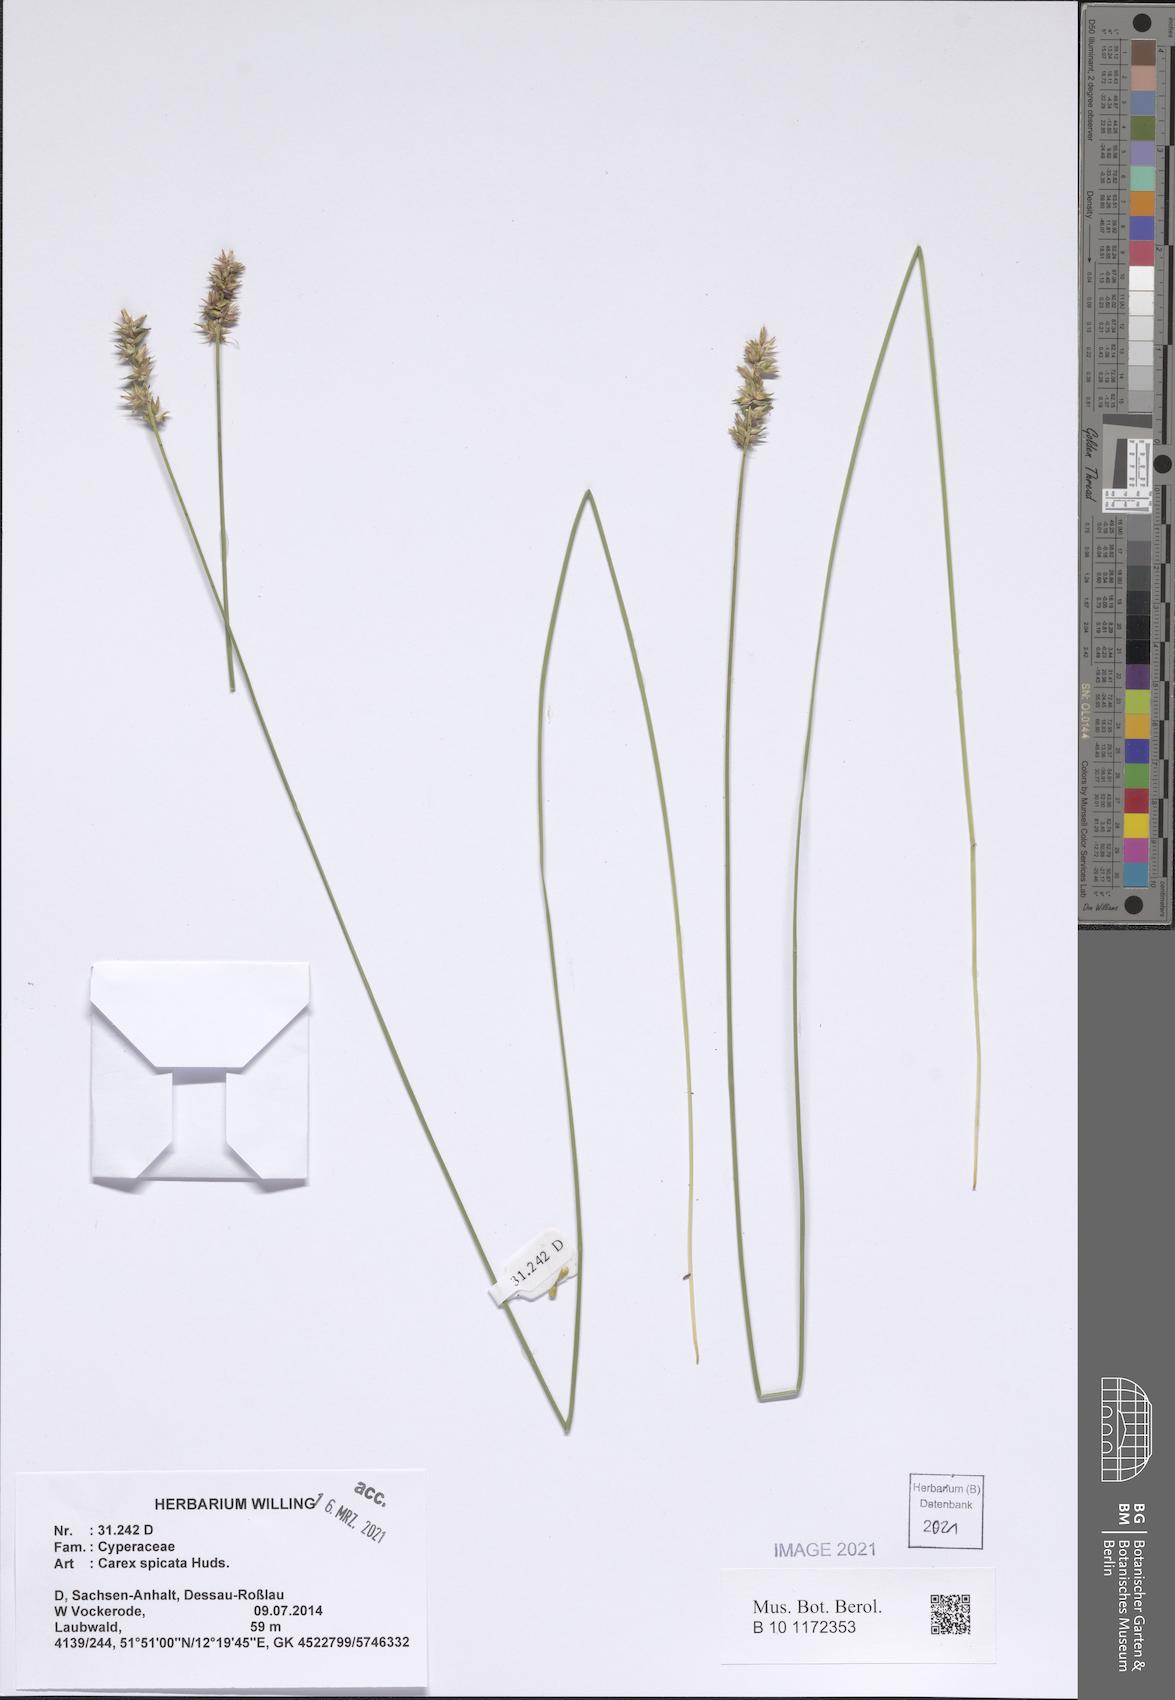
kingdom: Plantae
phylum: Tracheophyta
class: Liliopsida
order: Poales
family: Cyperaceae
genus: Carex
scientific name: Carex spicata
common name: Spiked sedge
